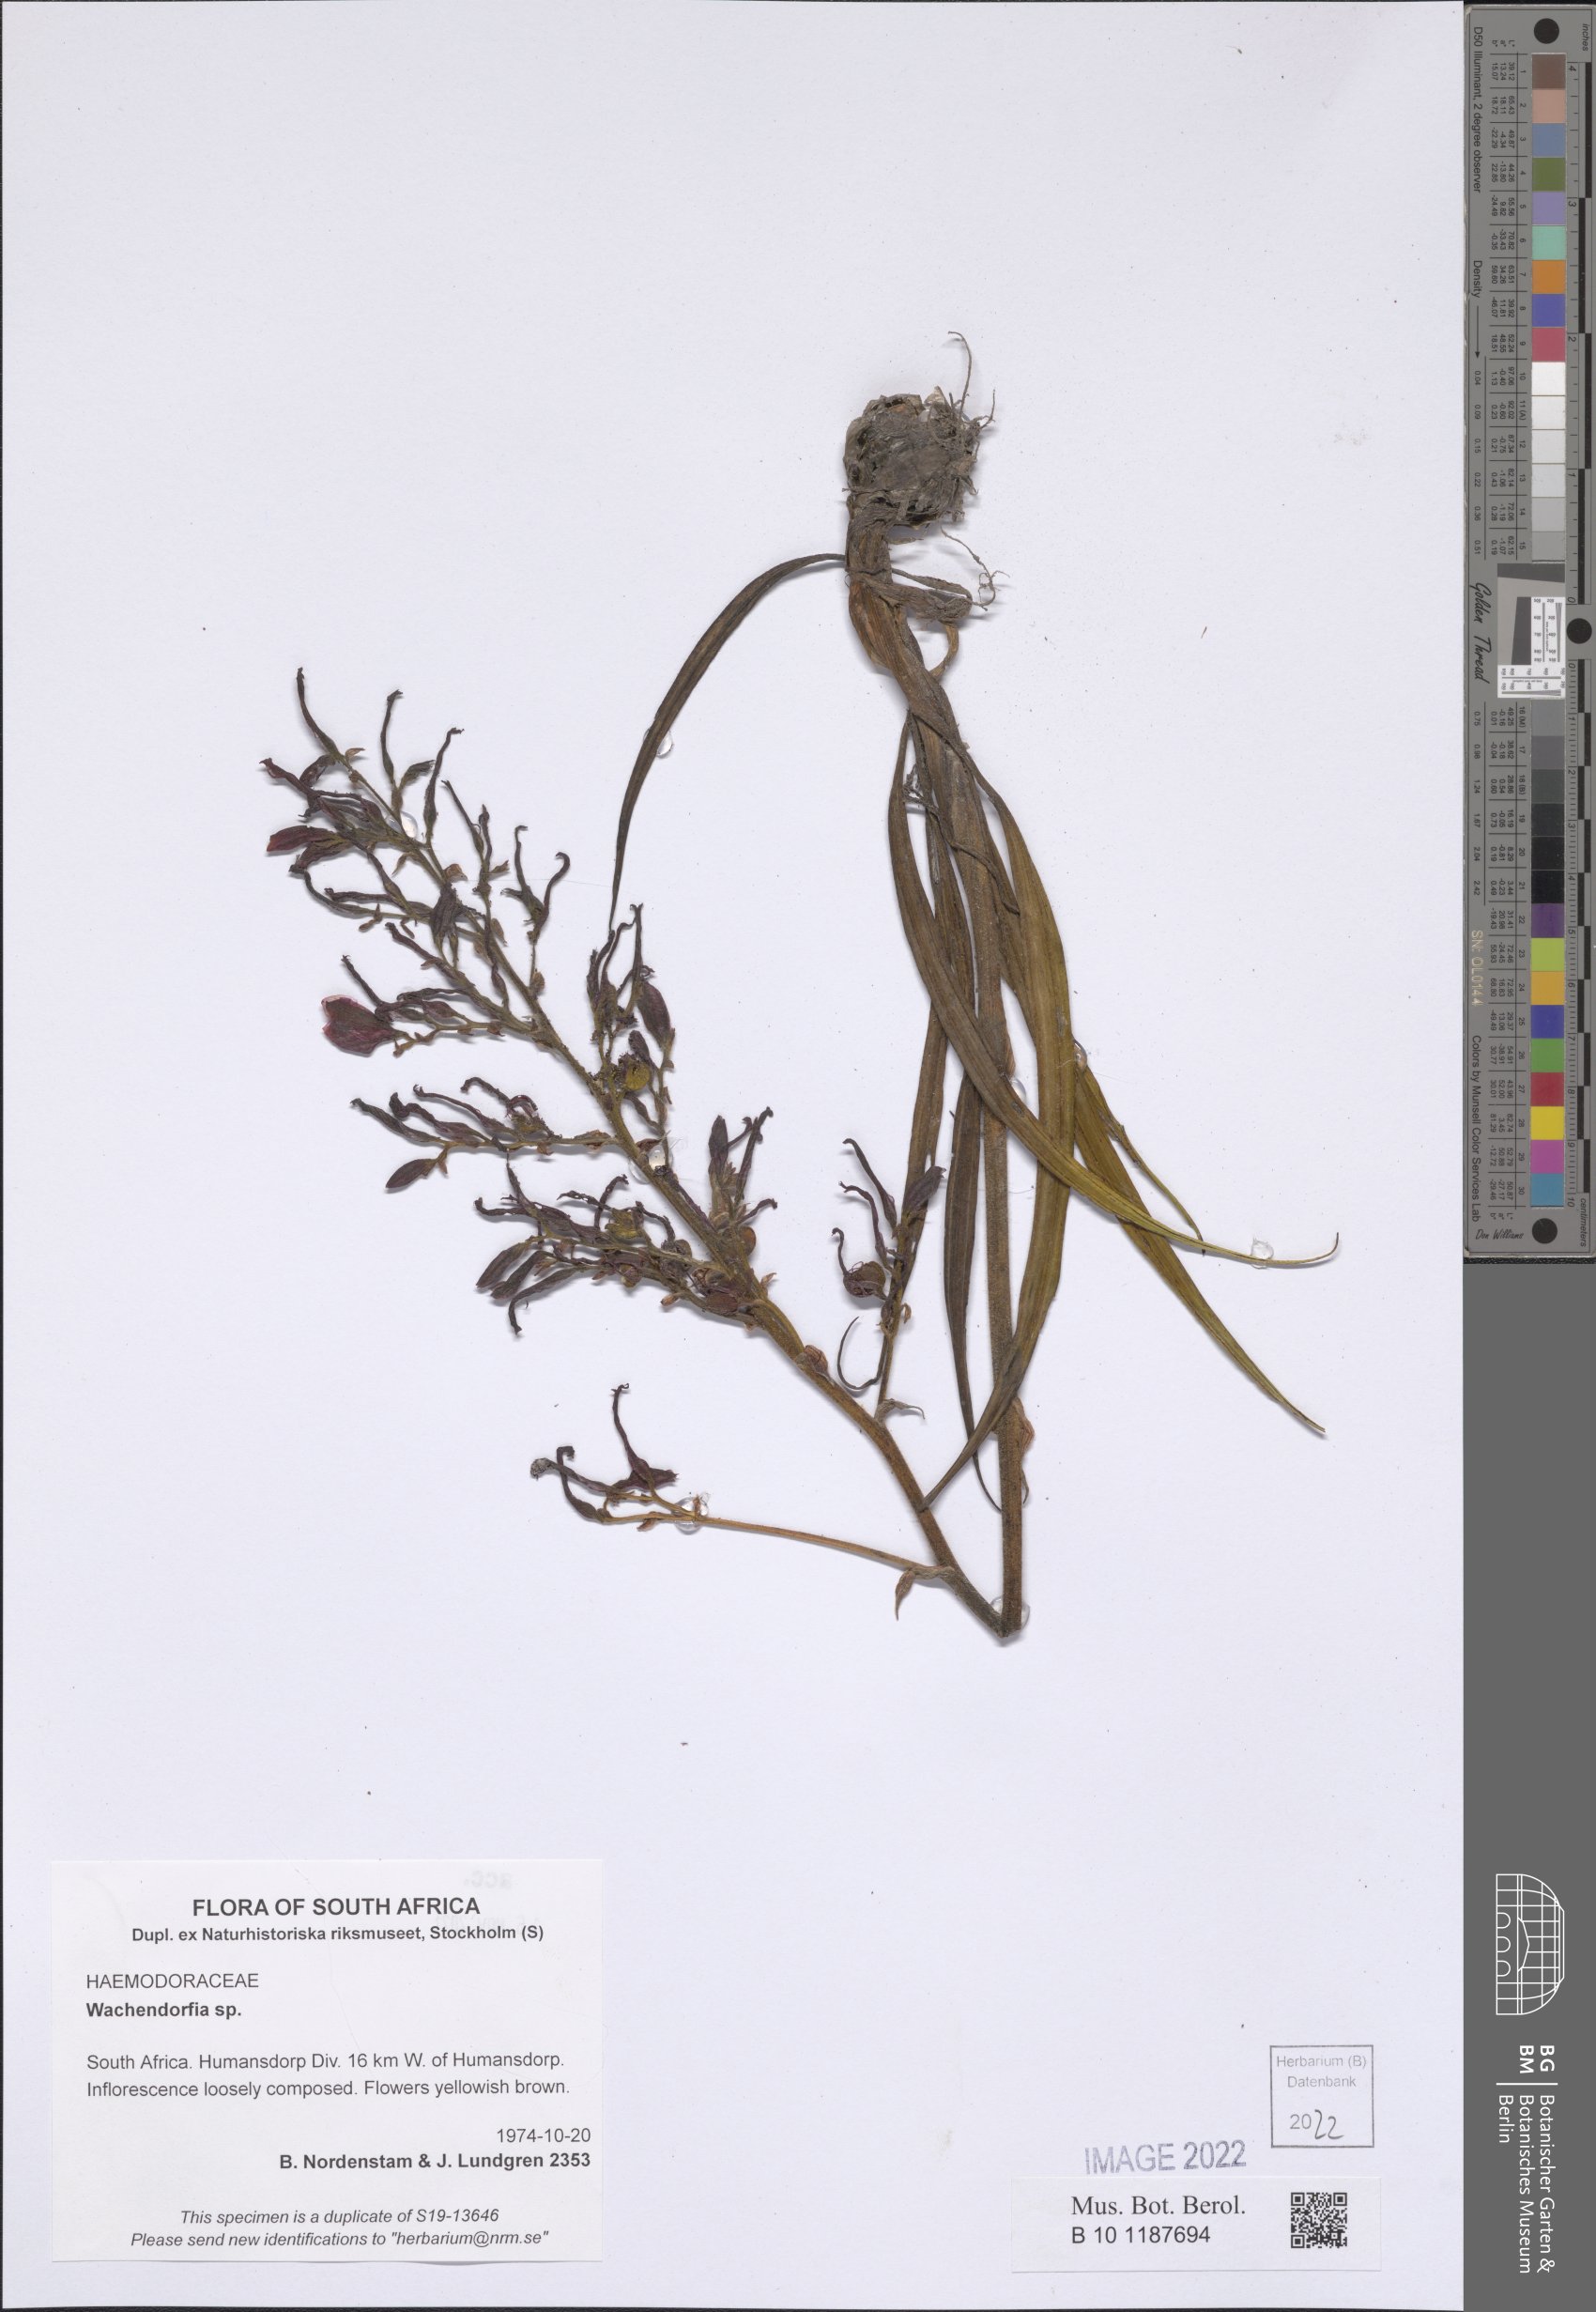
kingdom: Plantae
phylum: Tracheophyta
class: Liliopsida
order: Commelinales
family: Haemodoraceae
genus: Wachendorfia
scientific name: Wachendorfia
